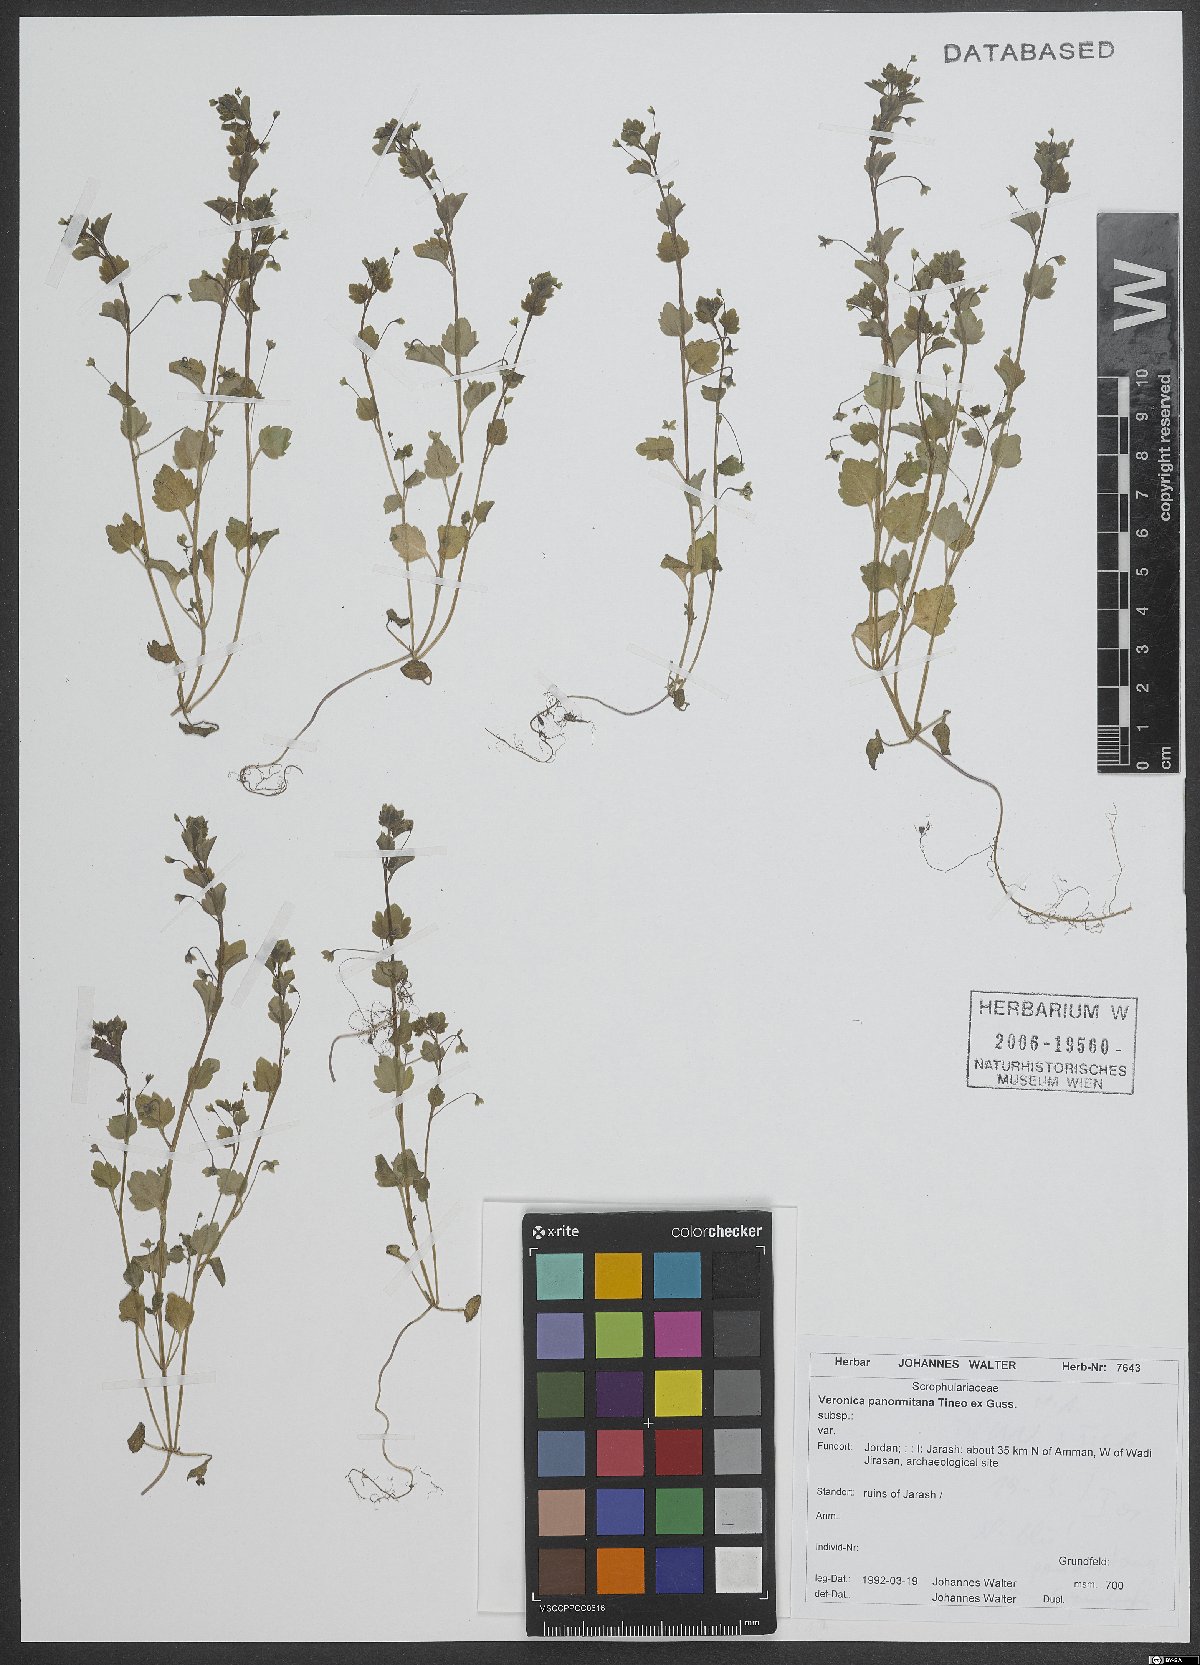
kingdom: Plantae
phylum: Tracheophyta
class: Magnoliopsida
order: Lamiales
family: Plantaginaceae
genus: Veronica
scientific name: Veronica panormitana
